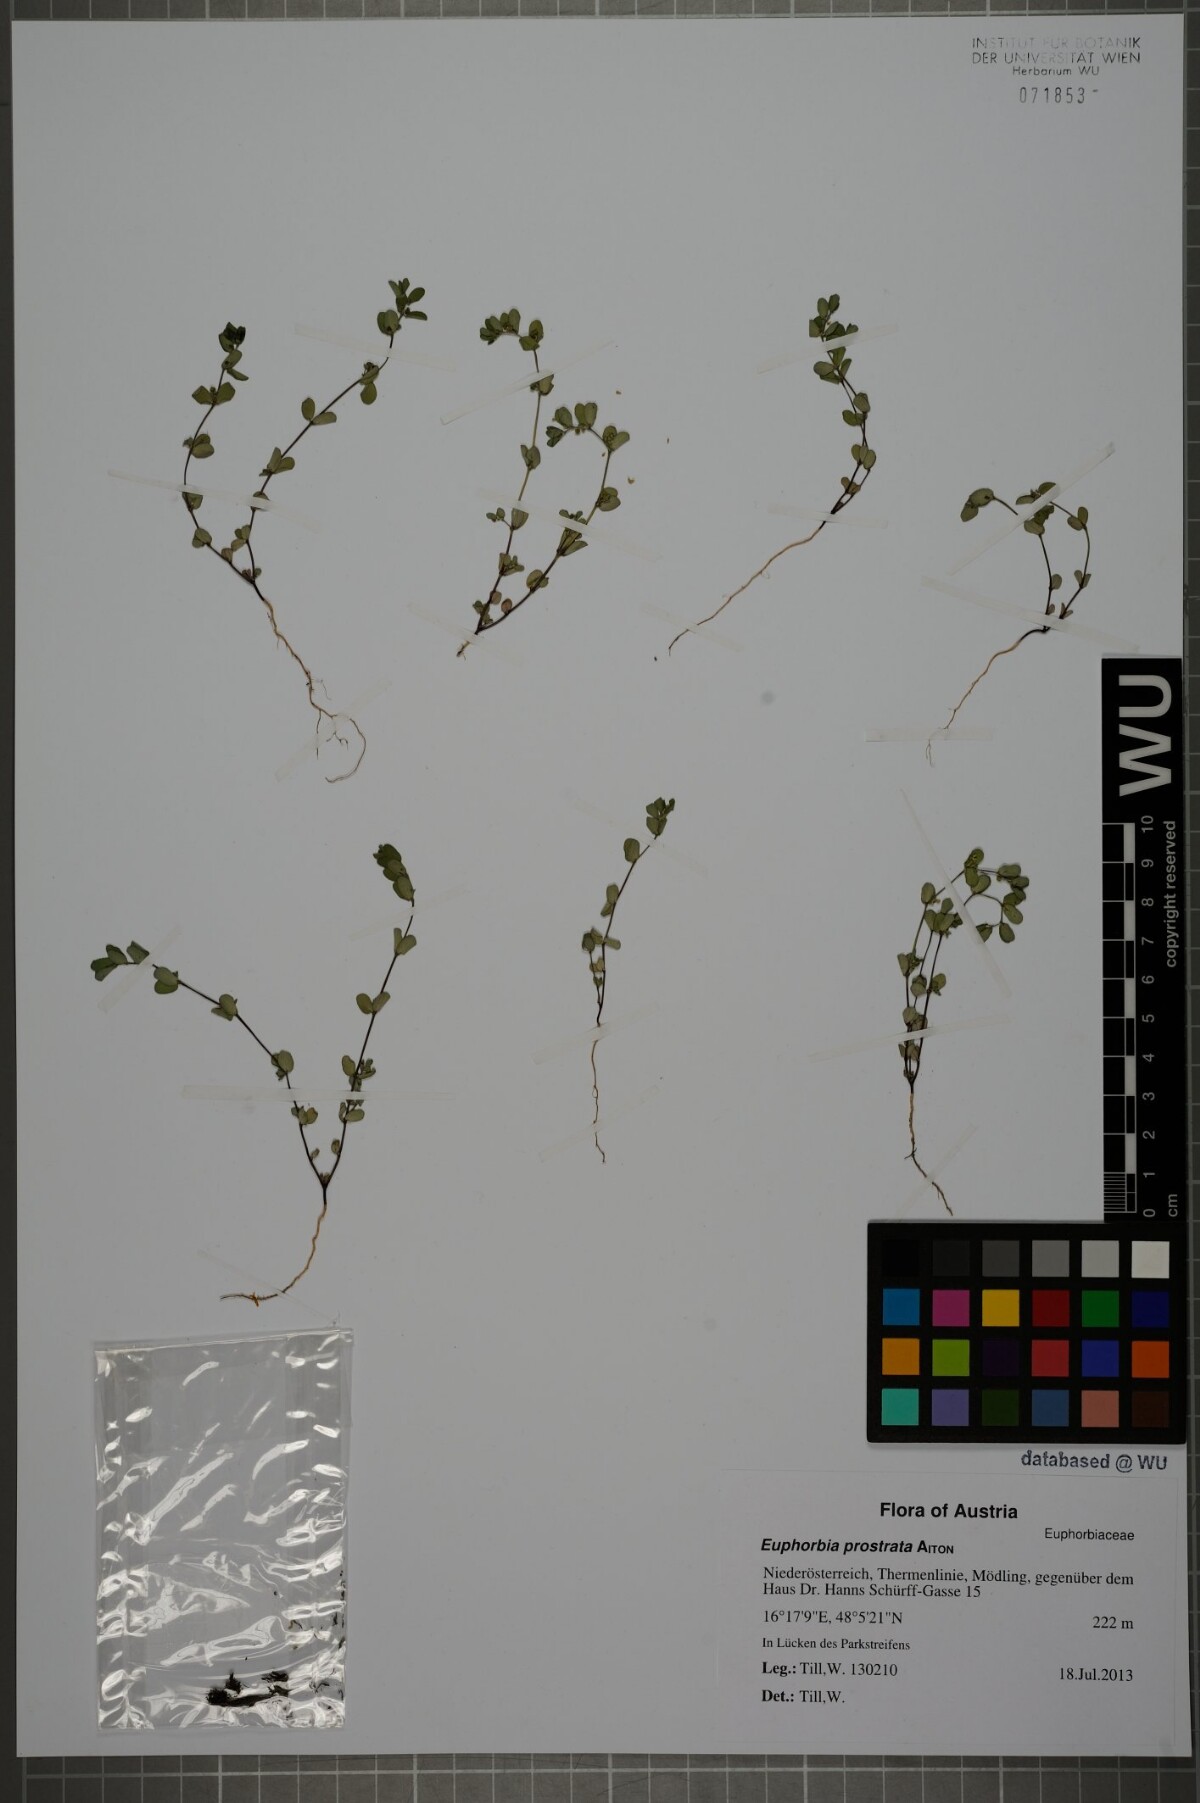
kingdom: Plantae
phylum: Tracheophyta
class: Magnoliopsida
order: Malpighiales
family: Euphorbiaceae
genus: Euphorbia
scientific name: Euphorbia prostrata
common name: Prostrate sandmat
